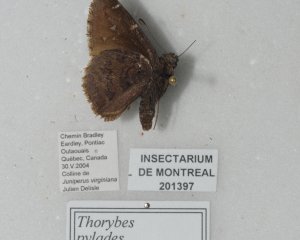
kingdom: Animalia
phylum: Arthropoda
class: Insecta
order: Lepidoptera
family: Hesperiidae
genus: Autochton
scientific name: Autochton
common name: Northern Cloudywing
